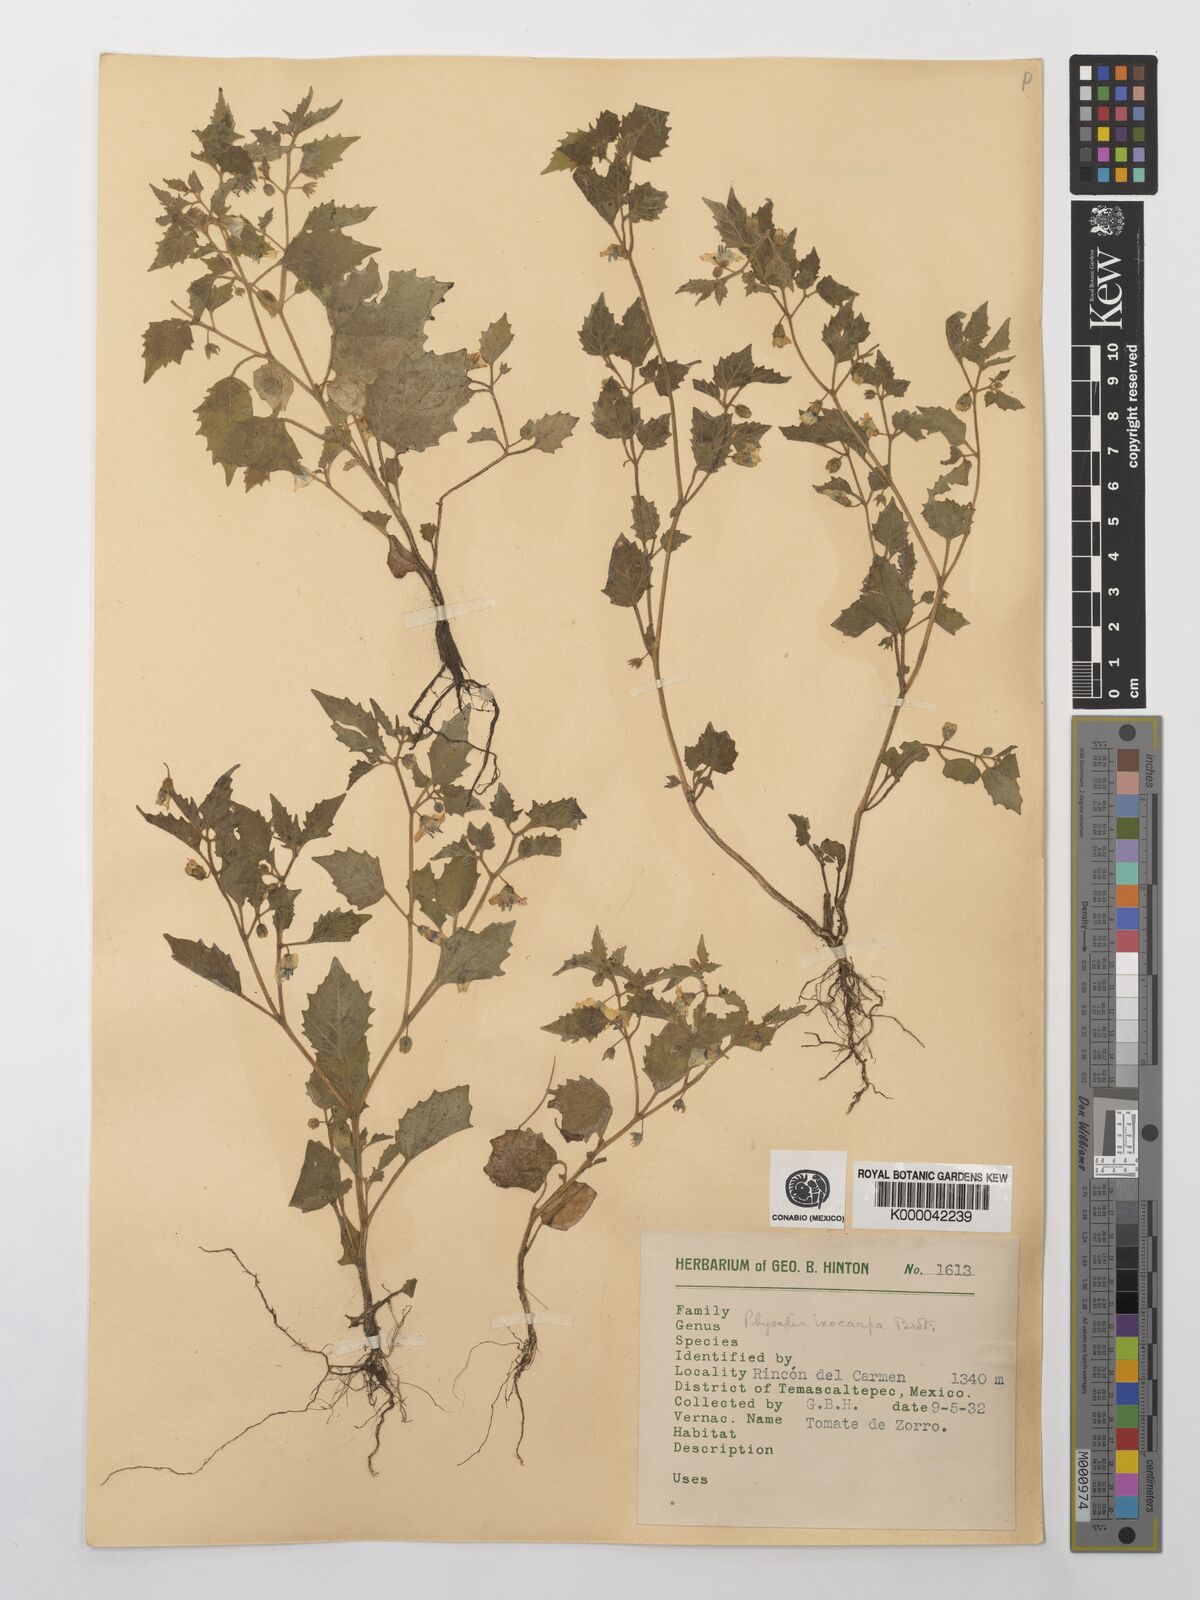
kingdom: Plantae
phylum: Tracheophyta
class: Magnoliopsida
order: Solanales
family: Solanaceae
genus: Physalis
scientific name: Physalis philadelphica
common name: Husk-tomato
